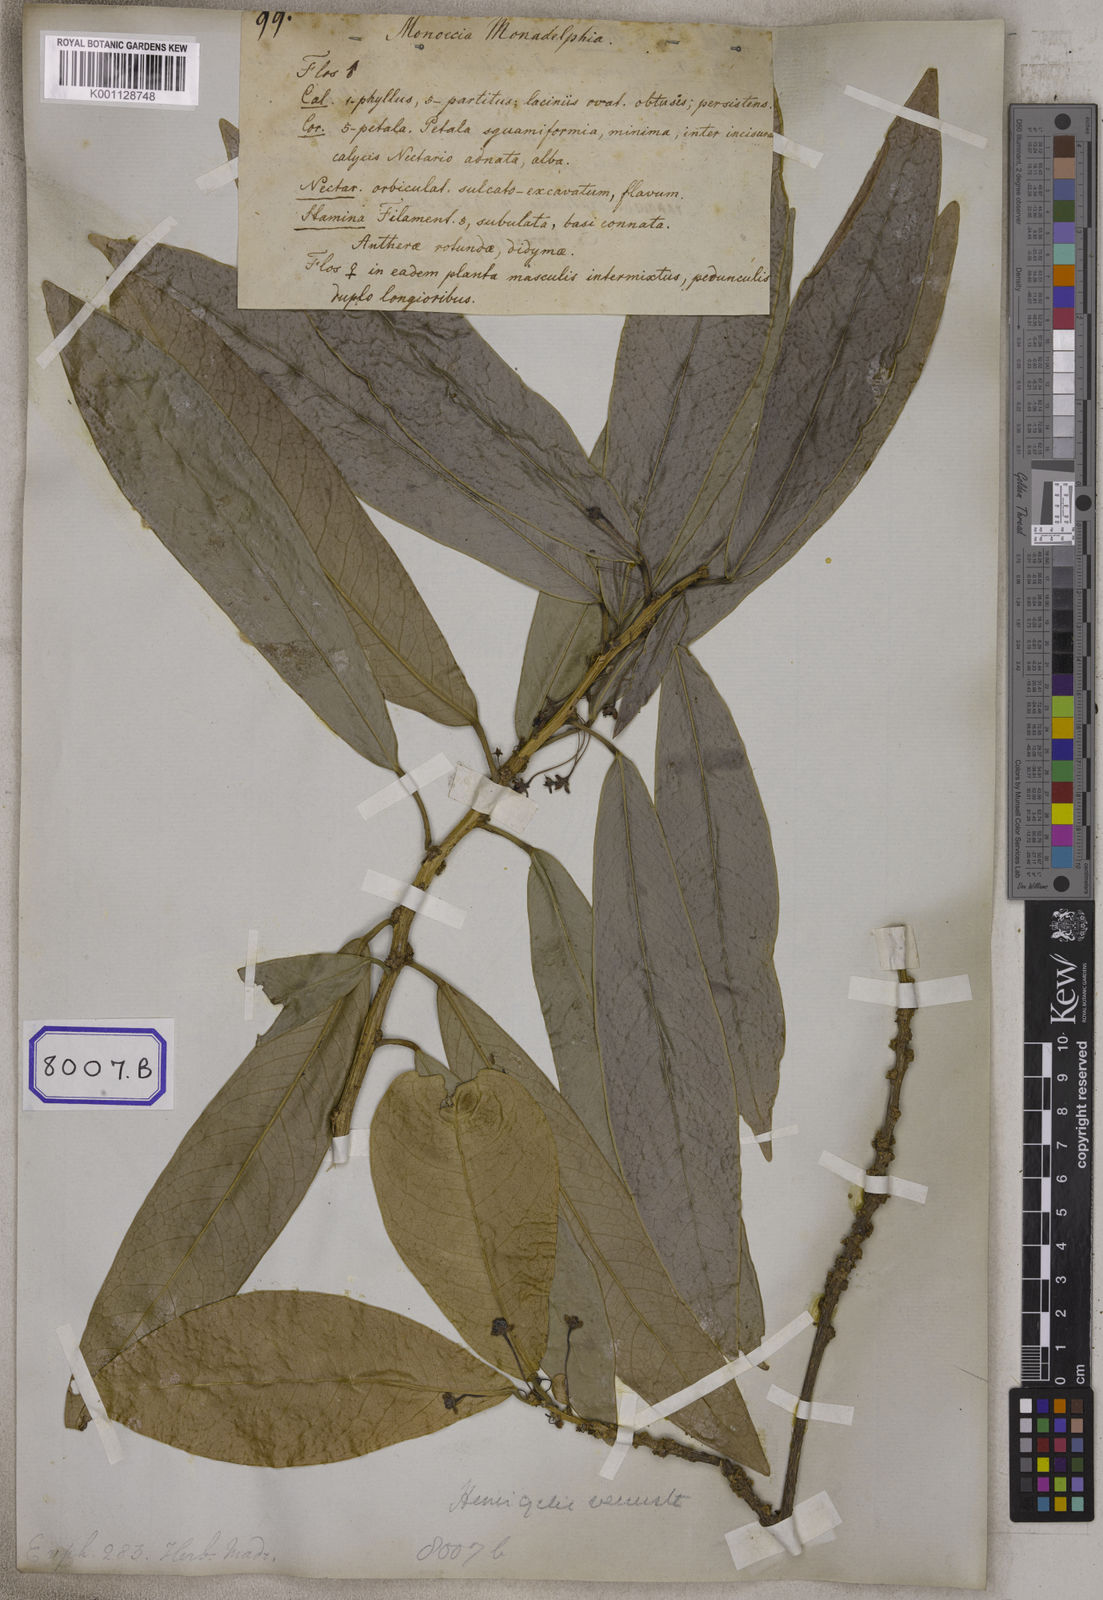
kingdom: Plantae
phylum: Tracheophyta
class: Magnoliopsida
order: Malpighiales
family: Euphorbiaceae
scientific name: Euphorbiaceae
